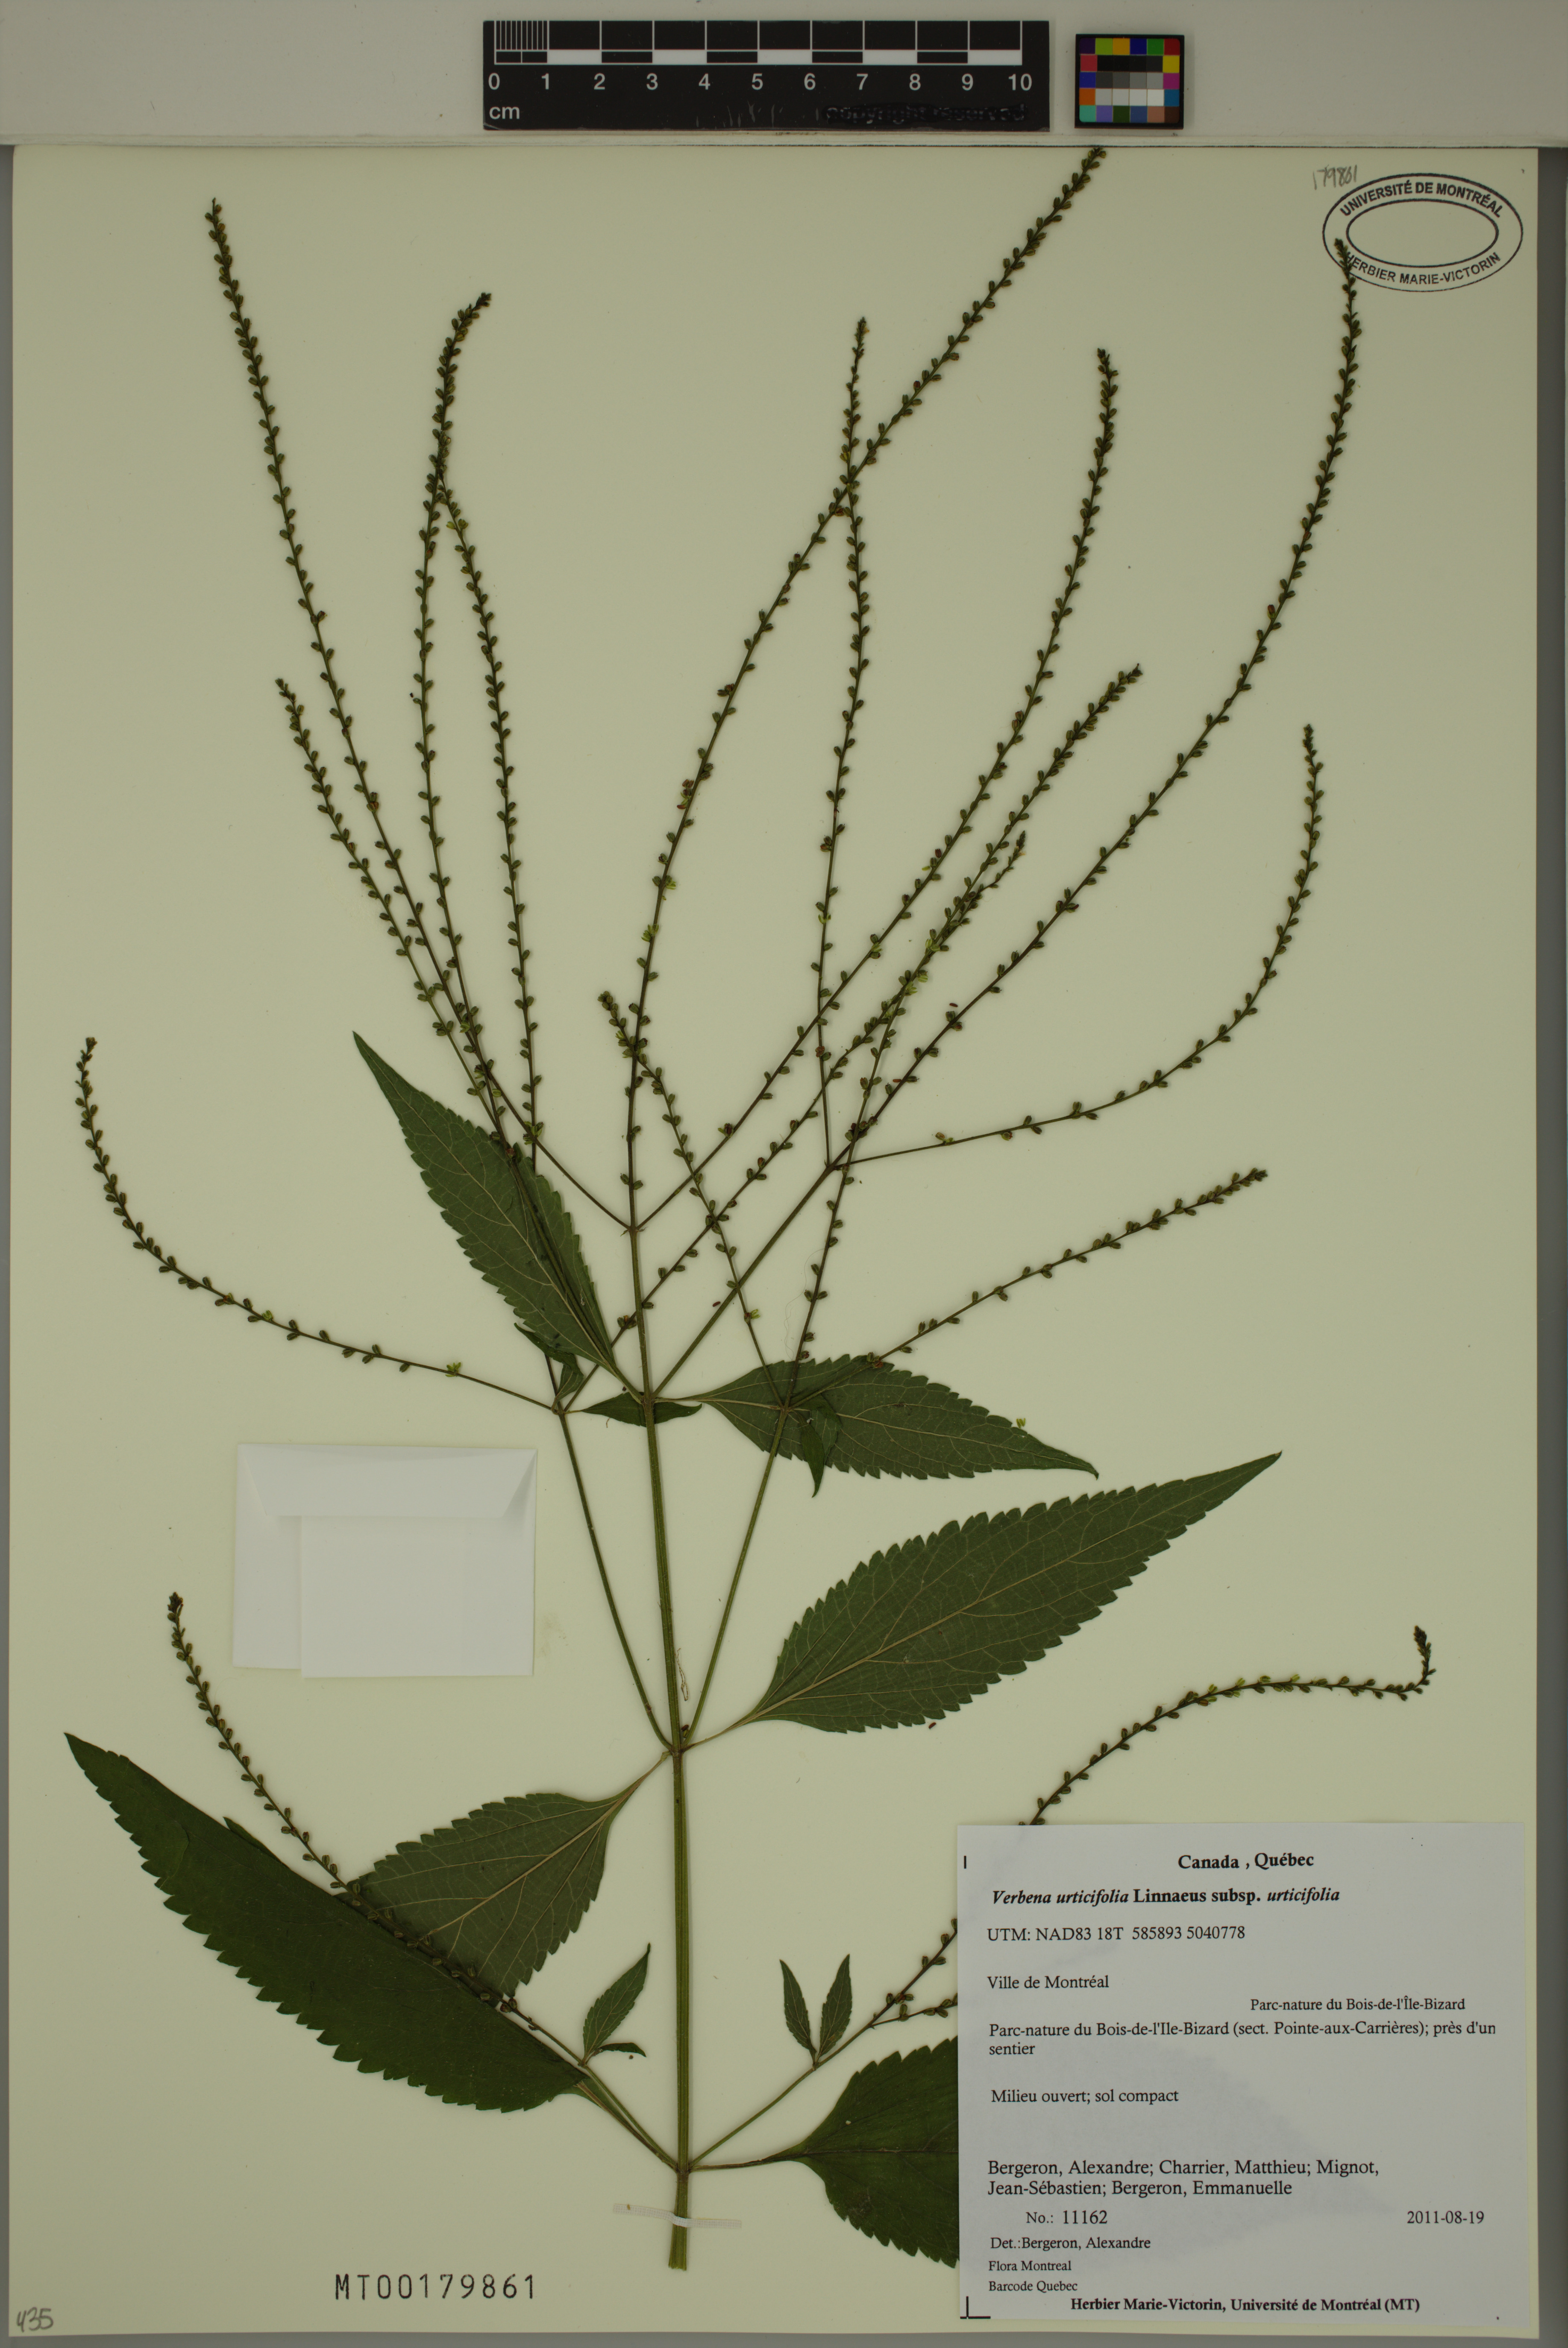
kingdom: Plantae
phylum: Tracheophyta
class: Magnoliopsida
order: Lamiales
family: Verbenaceae
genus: Verbena
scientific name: Verbena urticifolia
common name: Nettle-leaved vervain
